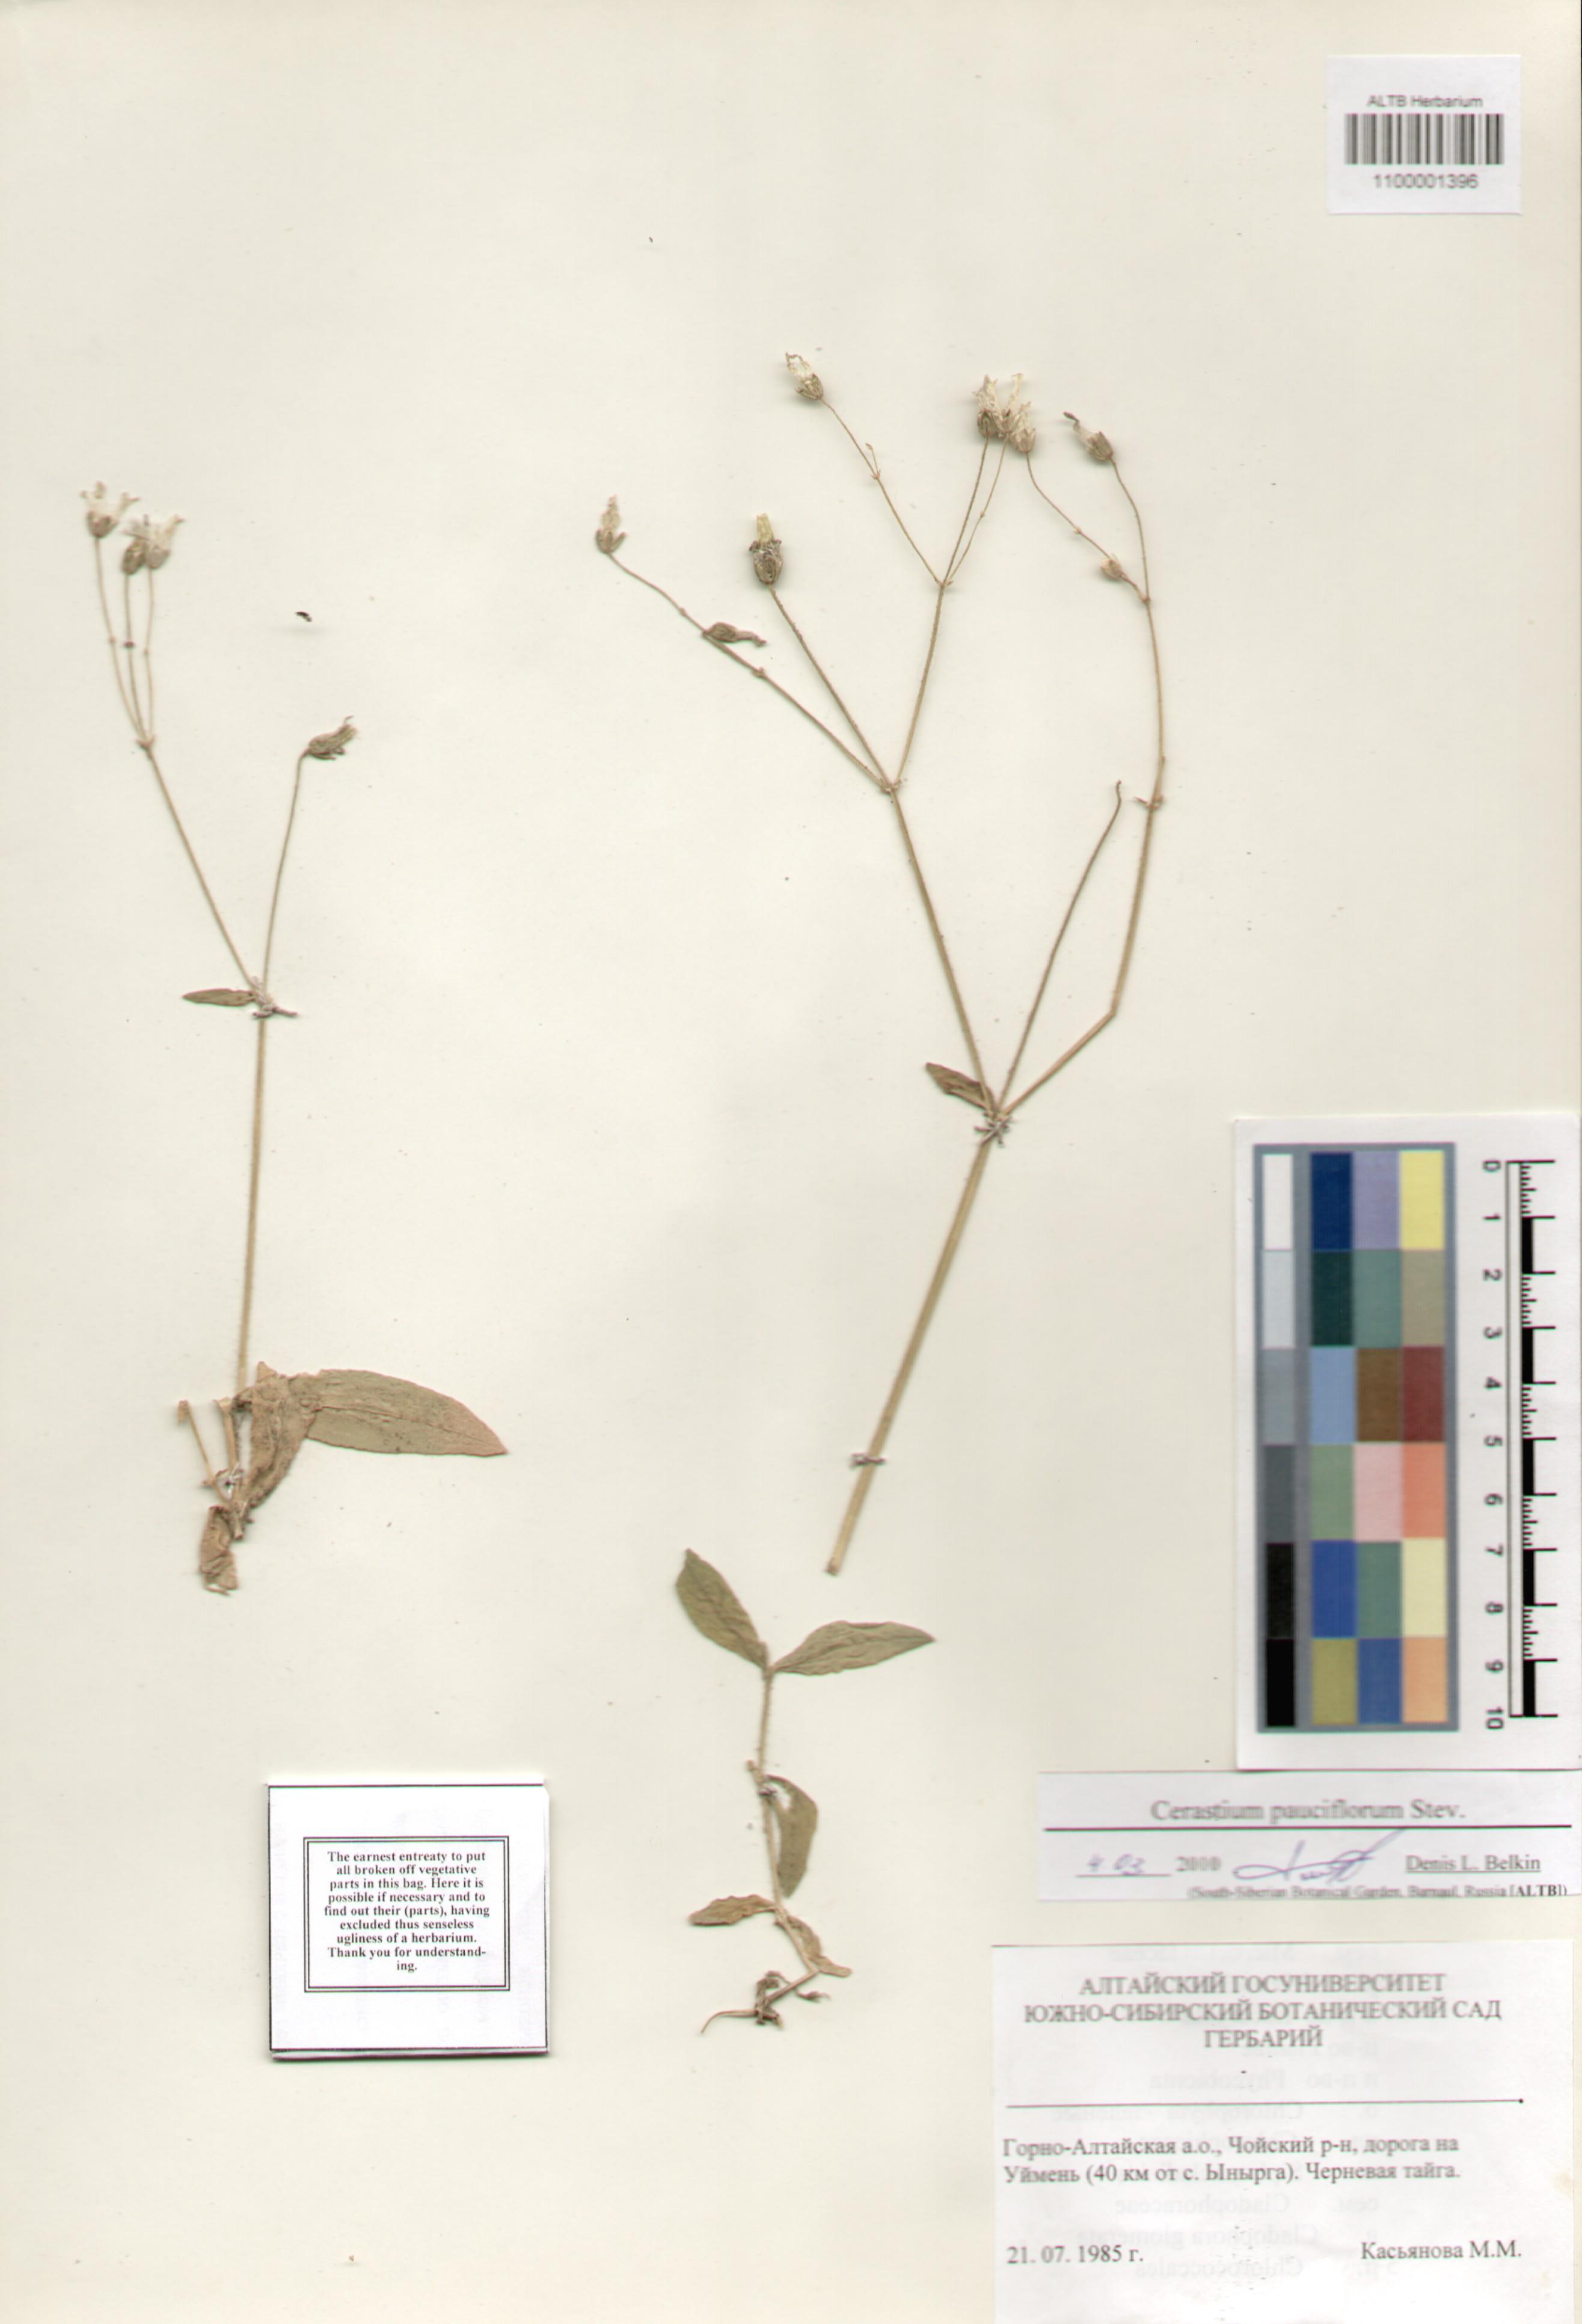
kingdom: Plantae
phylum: Tracheophyta
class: Magnoliopsida
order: Caryophyllales
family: Caryophyllaceae
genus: Cerastium
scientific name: Cerastium pauciflorum
